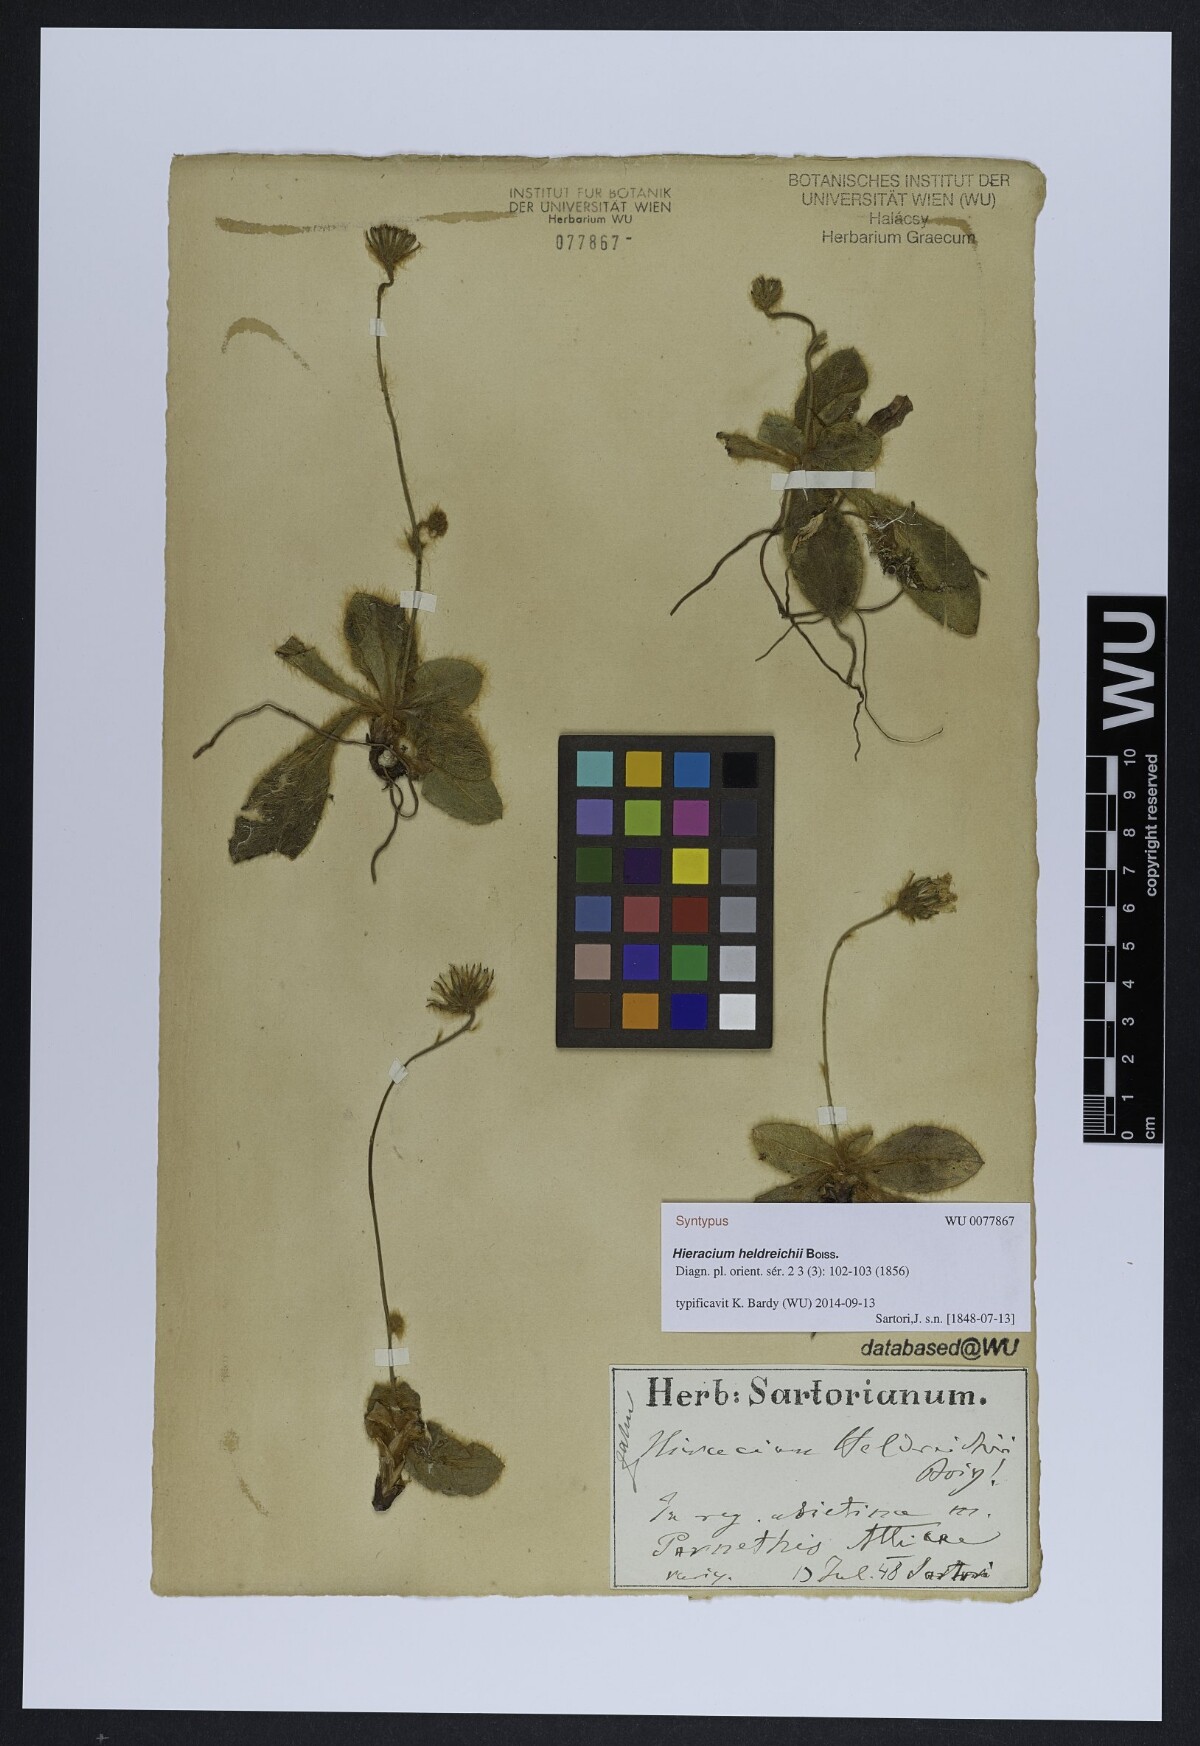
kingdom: Plantae
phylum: Tracheophyta
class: Magnoliopsida
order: Asterales
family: Asteraceae
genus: Hieracium
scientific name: Hieracium heldreichii
